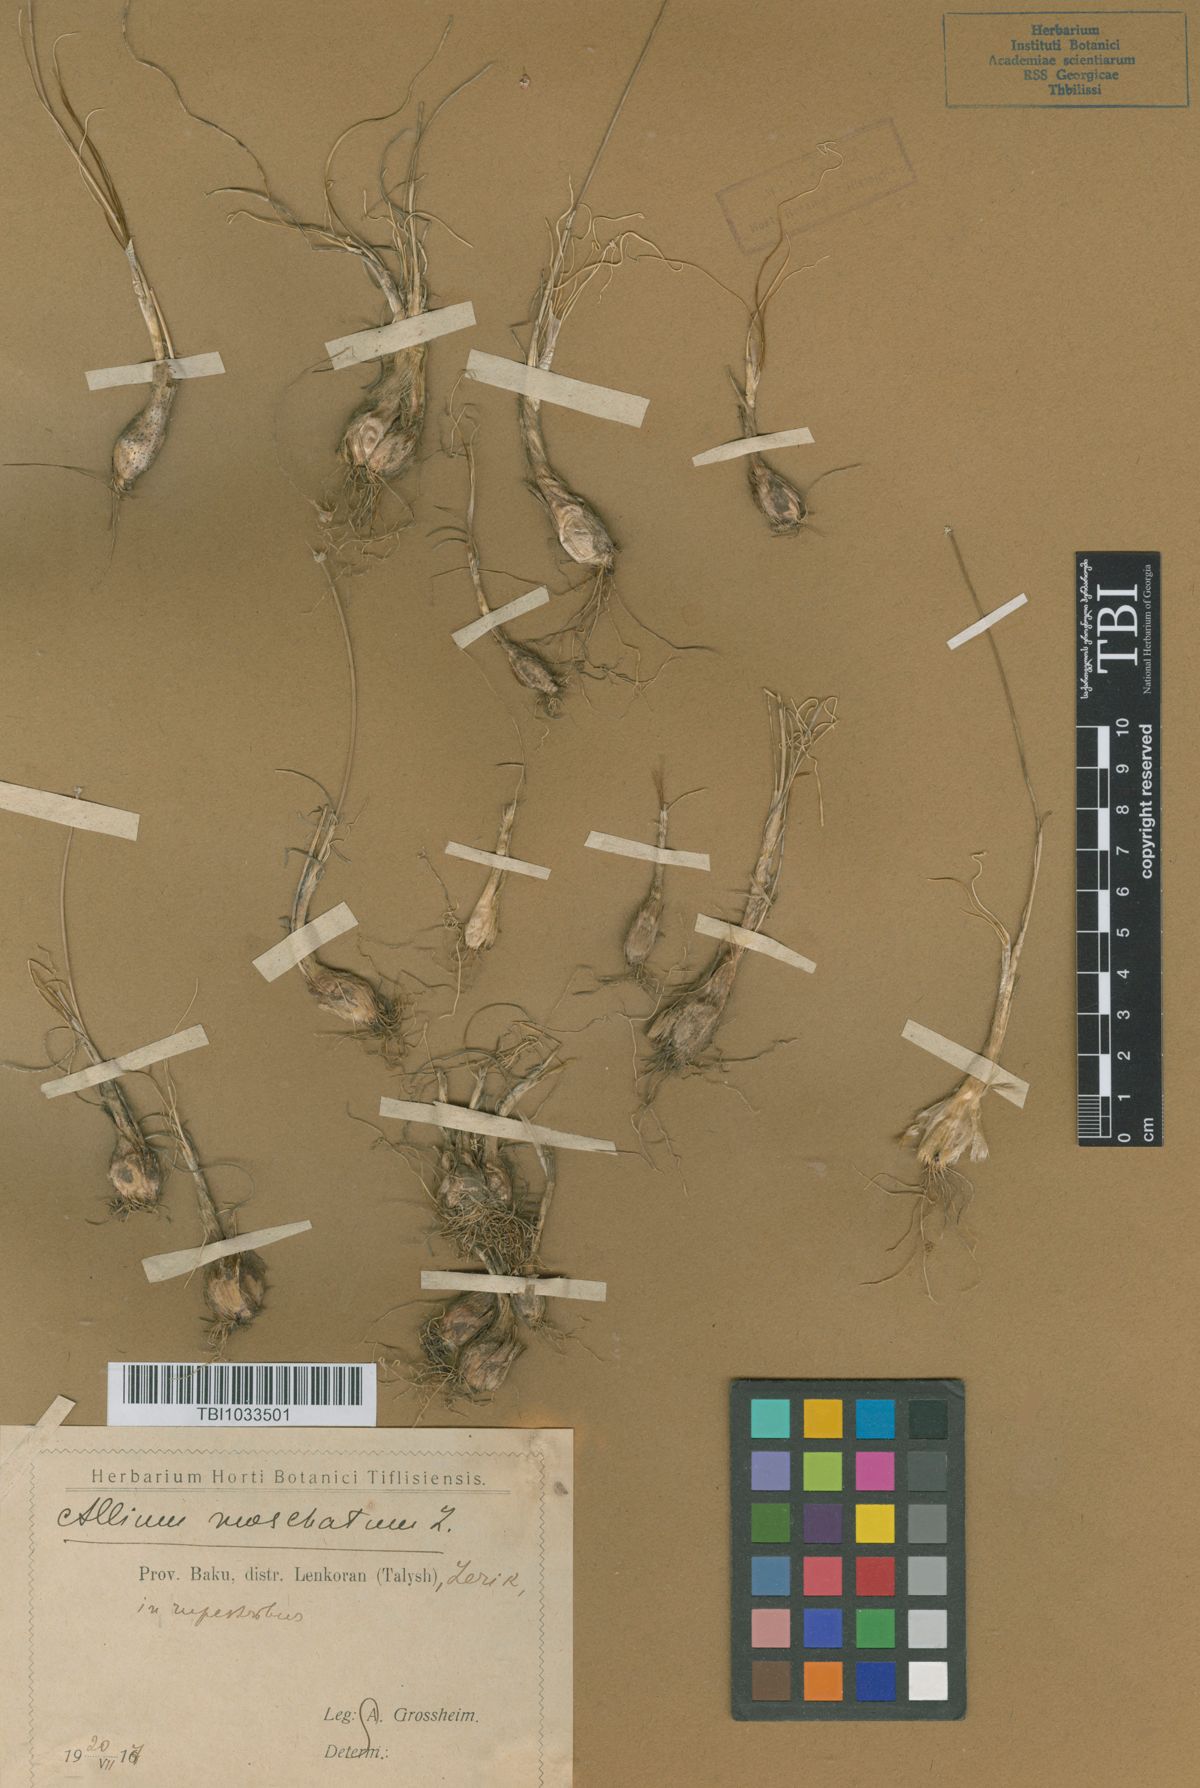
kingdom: Plantae
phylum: Tracheophyta
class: Liliopsida
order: Asparagales
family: Amaryllidaceae
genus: Allium
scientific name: Allium moschatum
